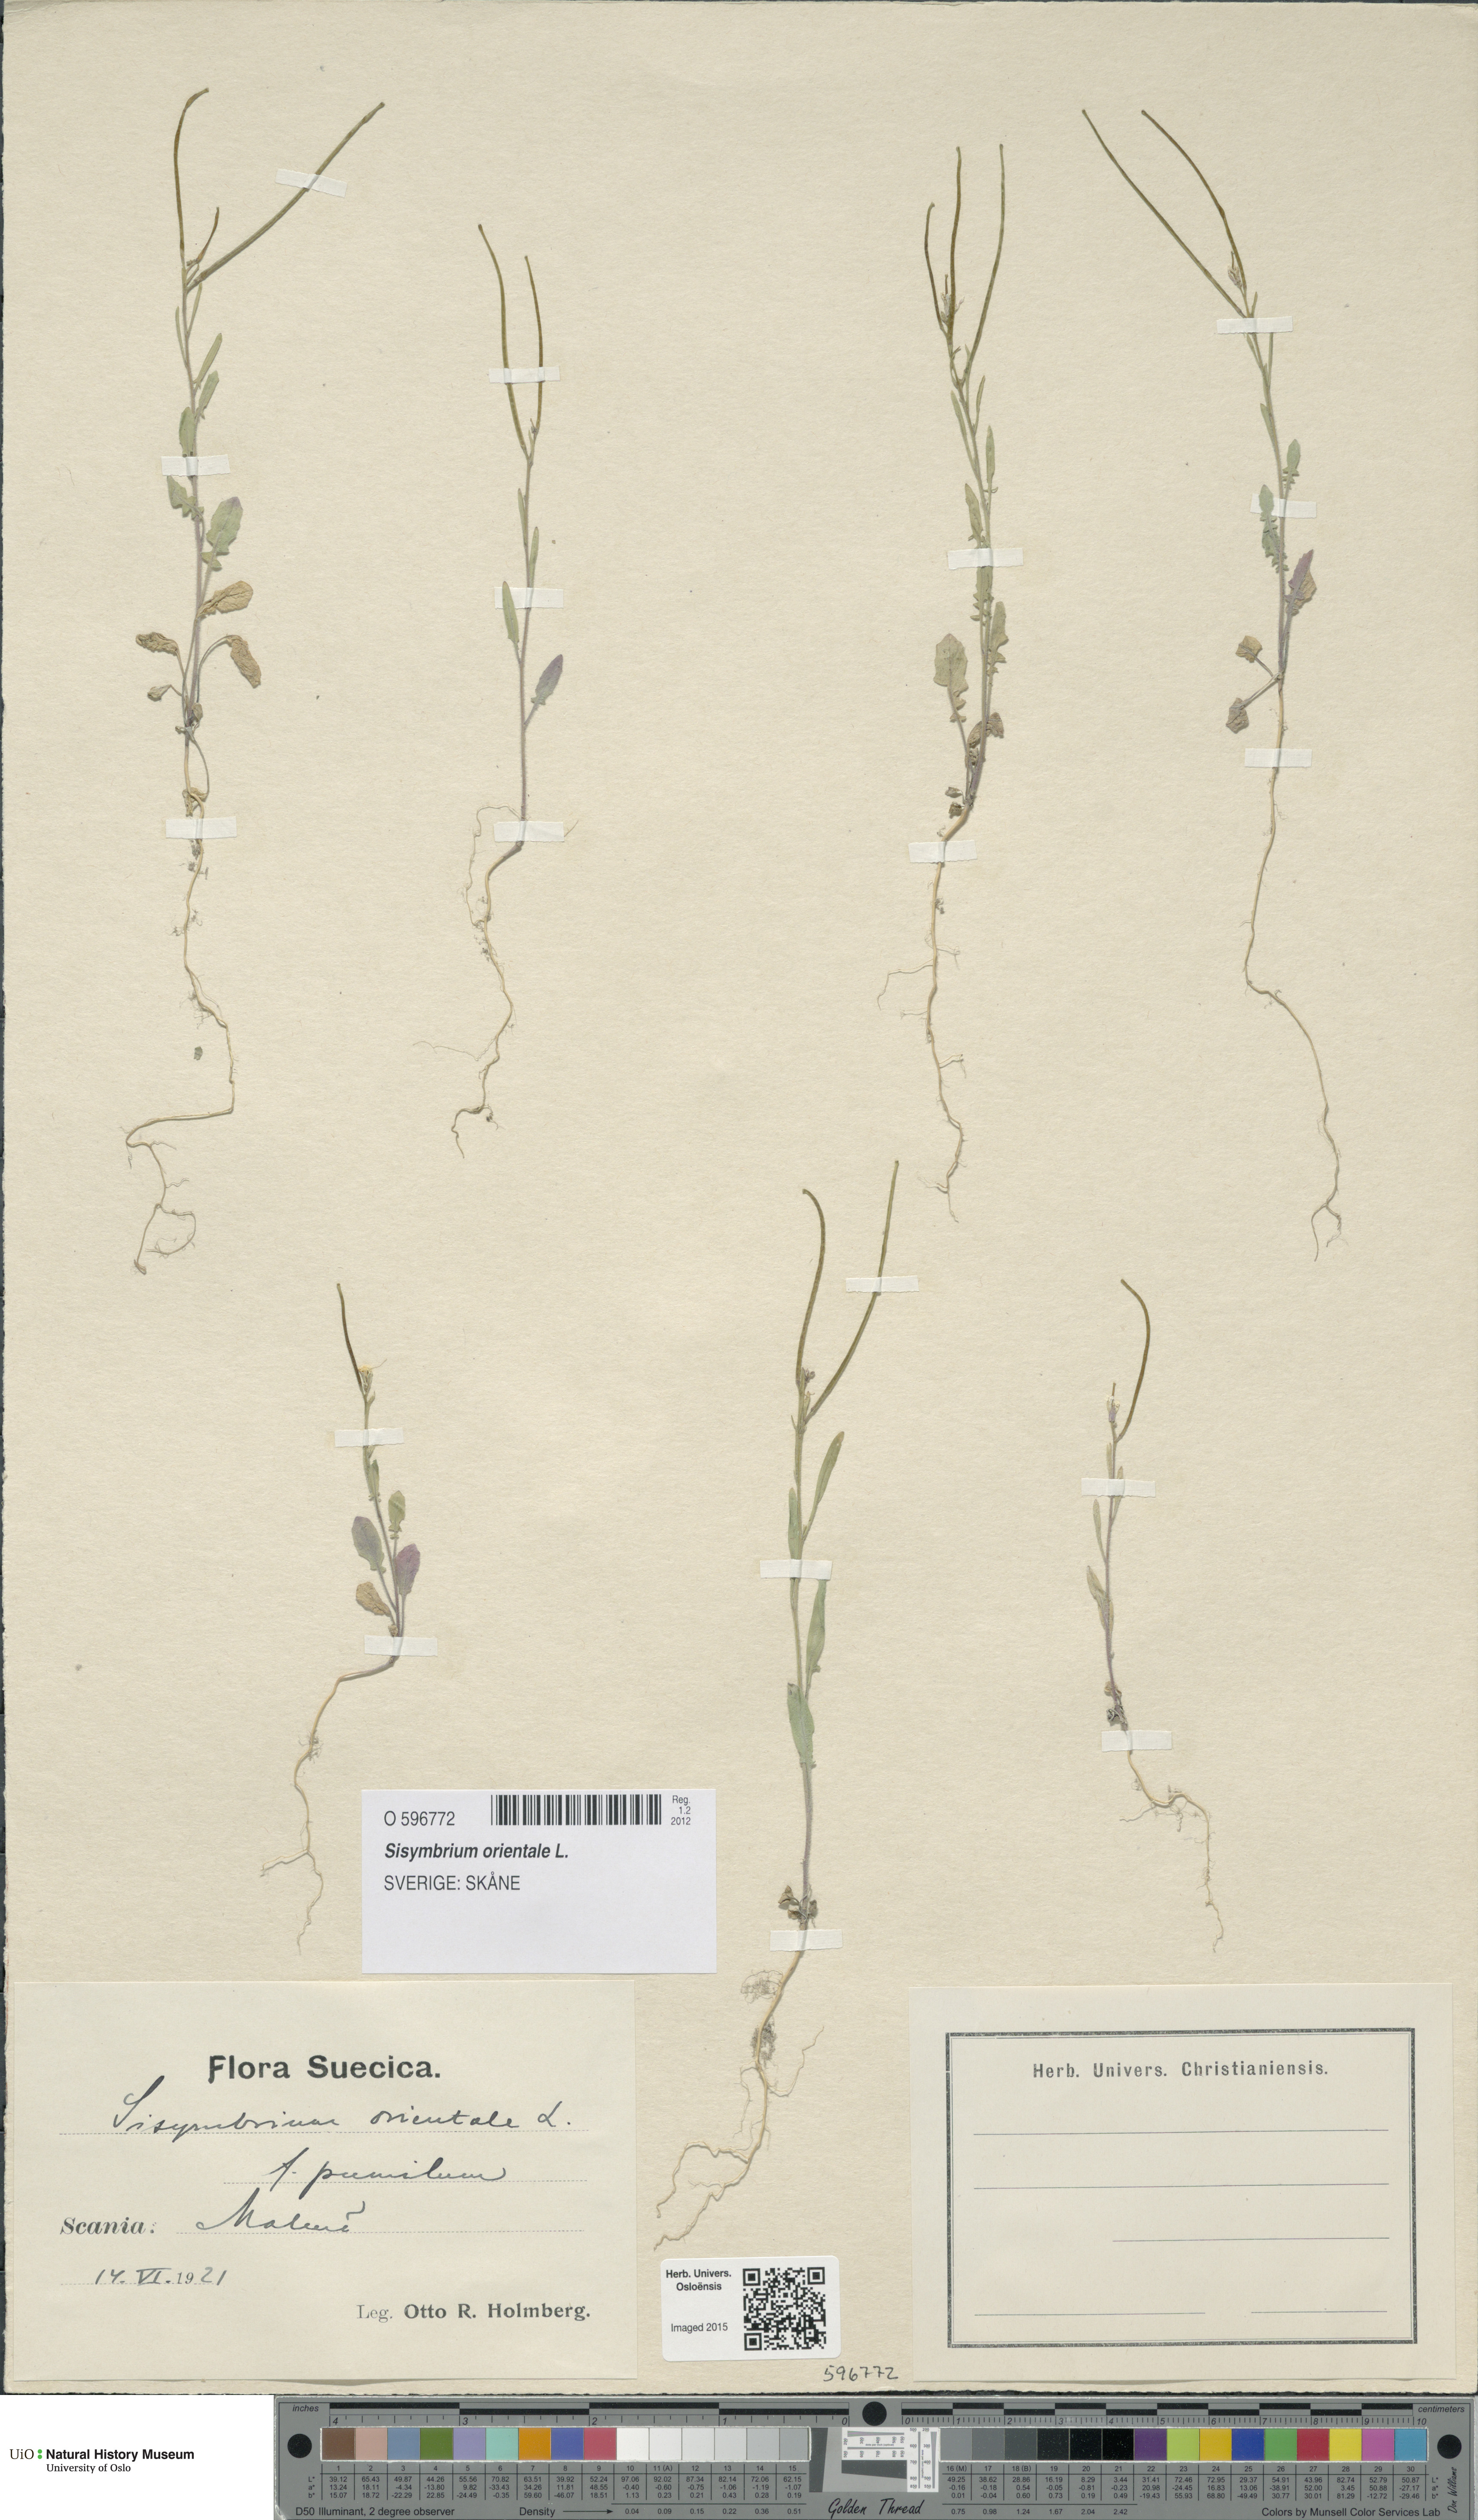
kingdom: Plantae
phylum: Tracheophyta
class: Magnoliopsida
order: Brassicales
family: Brassicaceae
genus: Sisymbrium
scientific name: Sisymbrium orientale
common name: Eastern rocket
